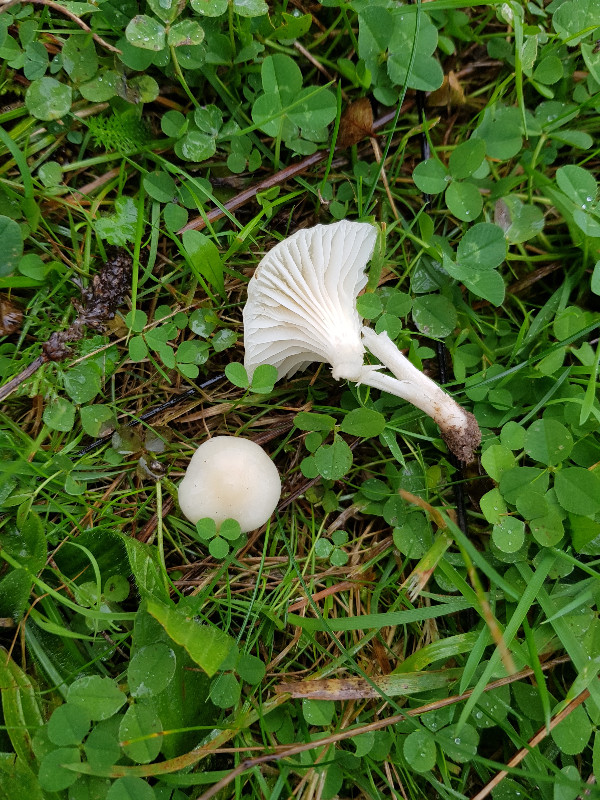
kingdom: Fungi
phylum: Basidiomycota
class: Agaricomycetes
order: Agaricales
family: Hygrophoraceae
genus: Cuphophyllus
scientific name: Cuphophyllus virgineus
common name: snehvid vokshat
